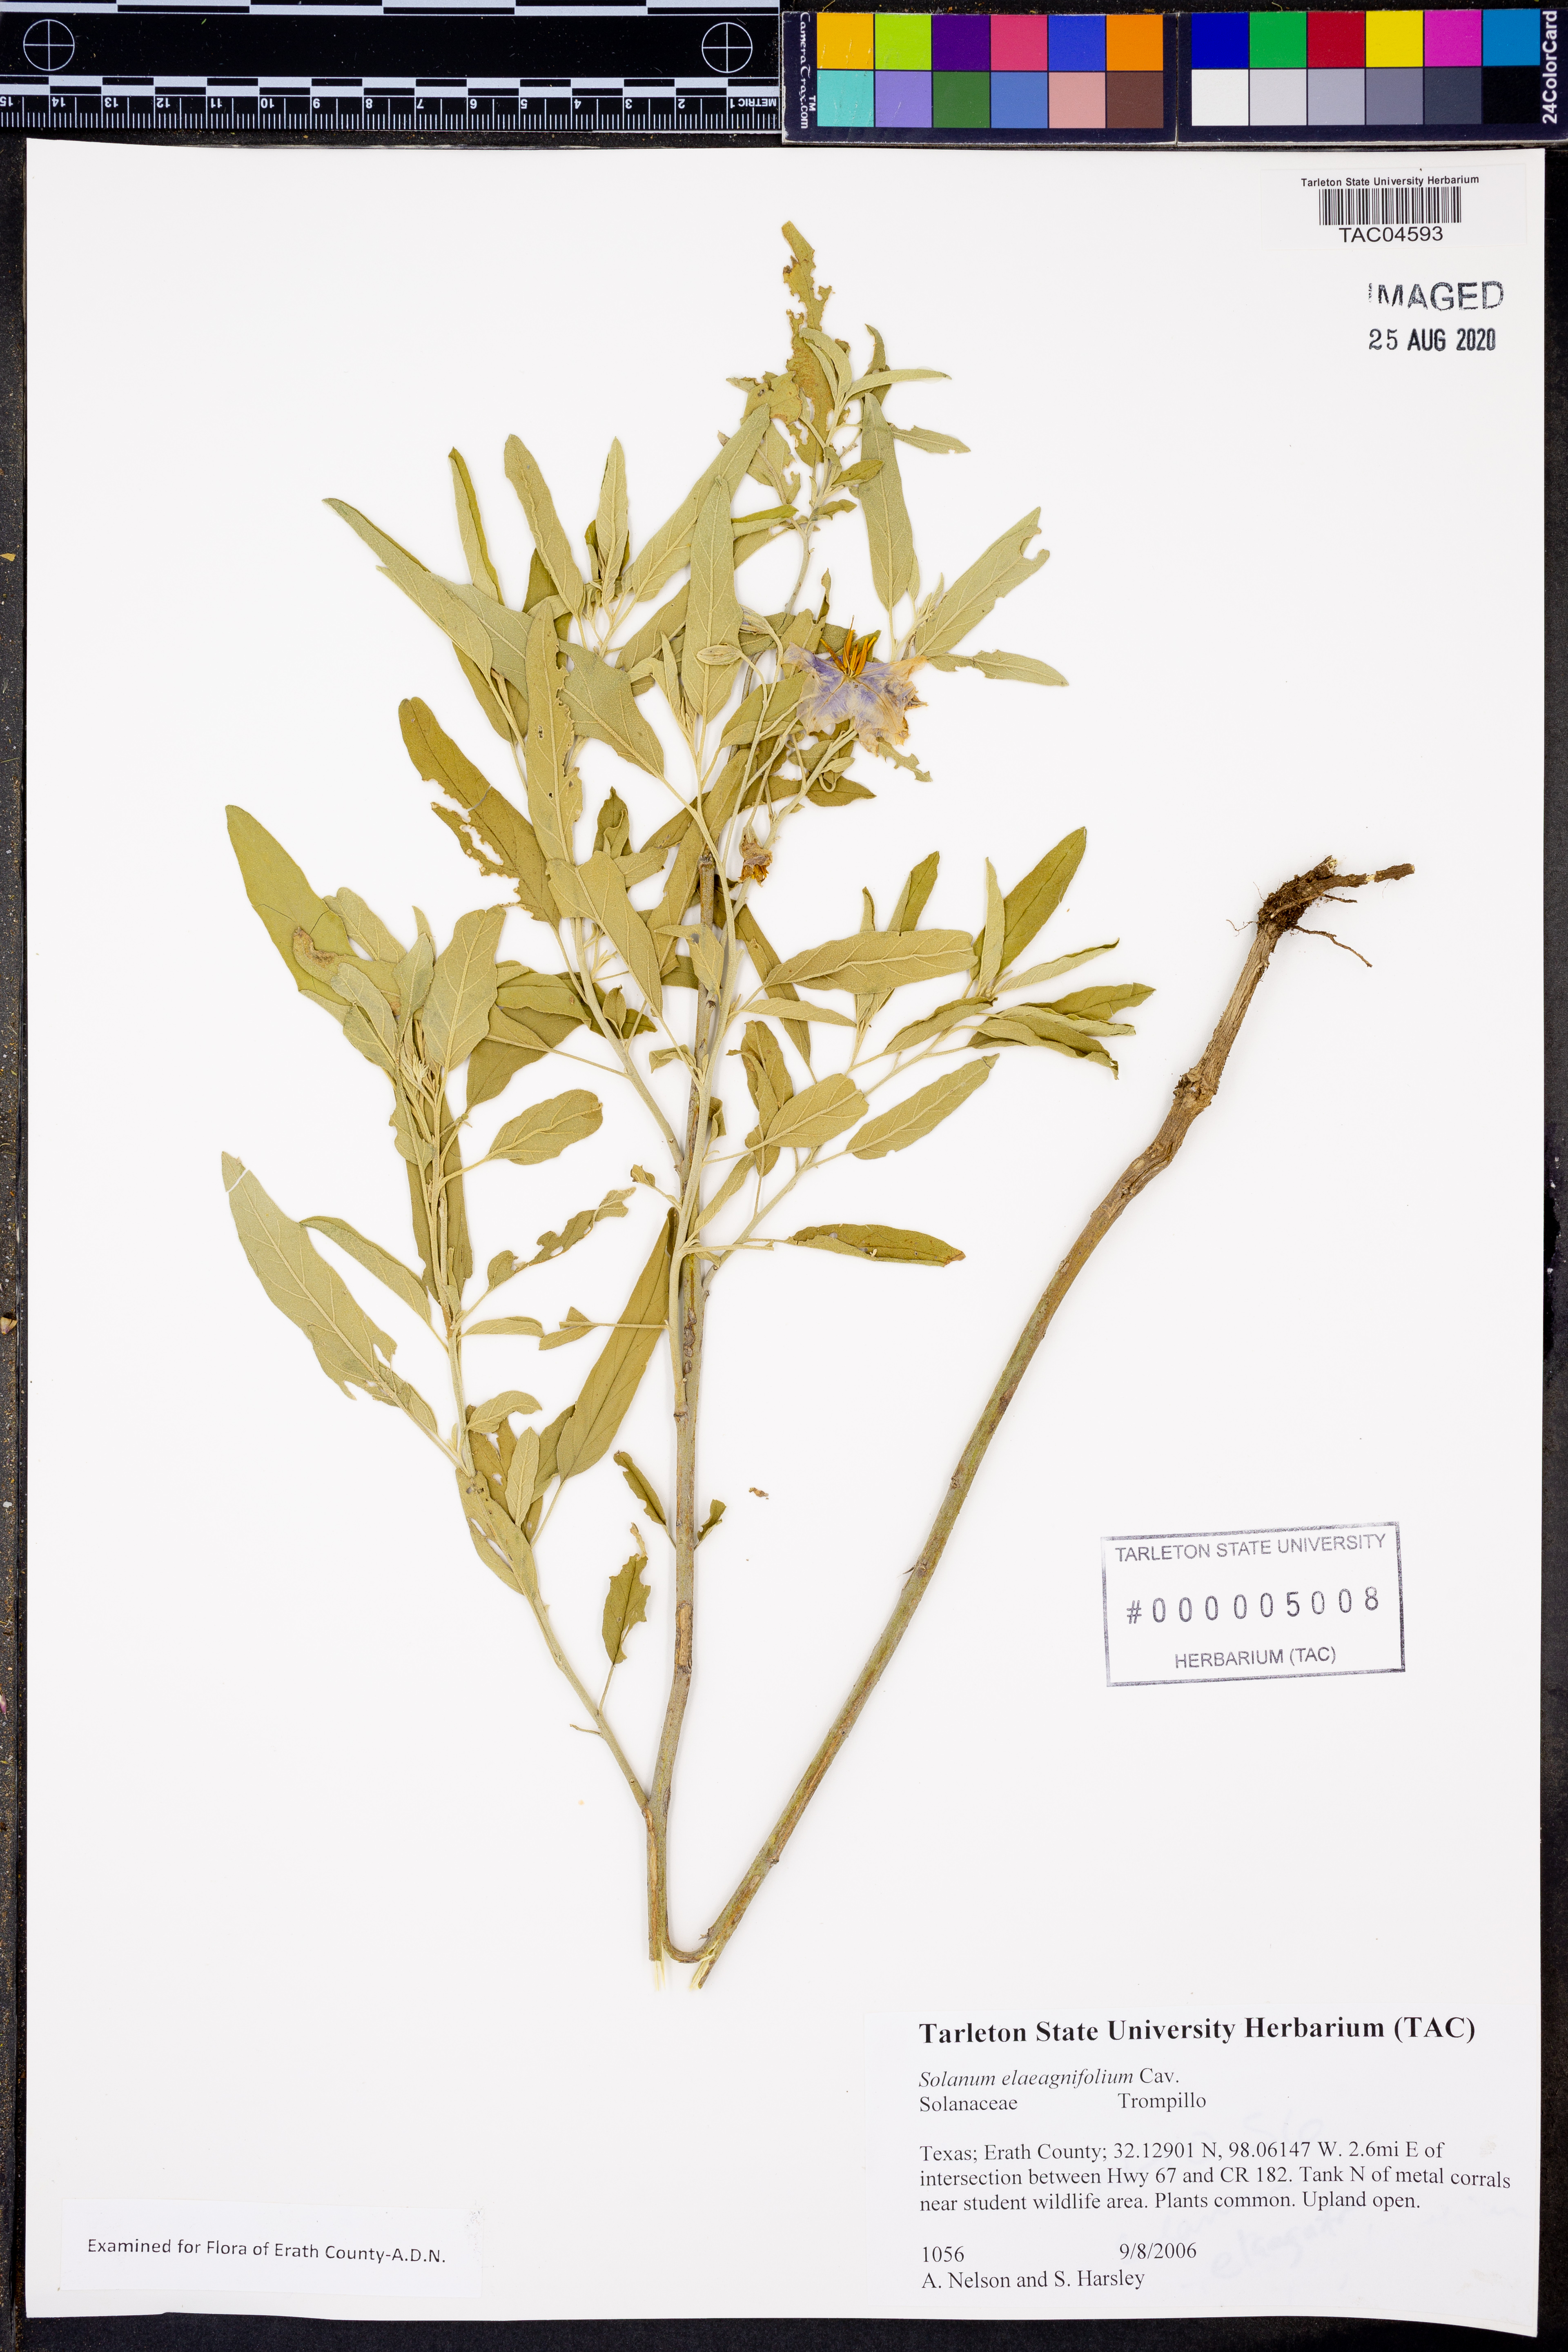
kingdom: Plantae
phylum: Tracheophyta
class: Magnoliopsida
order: Solanales
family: Solanaceae
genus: Solanum
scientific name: Solanum elaeagnifolium
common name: Silverleaf nightshade
